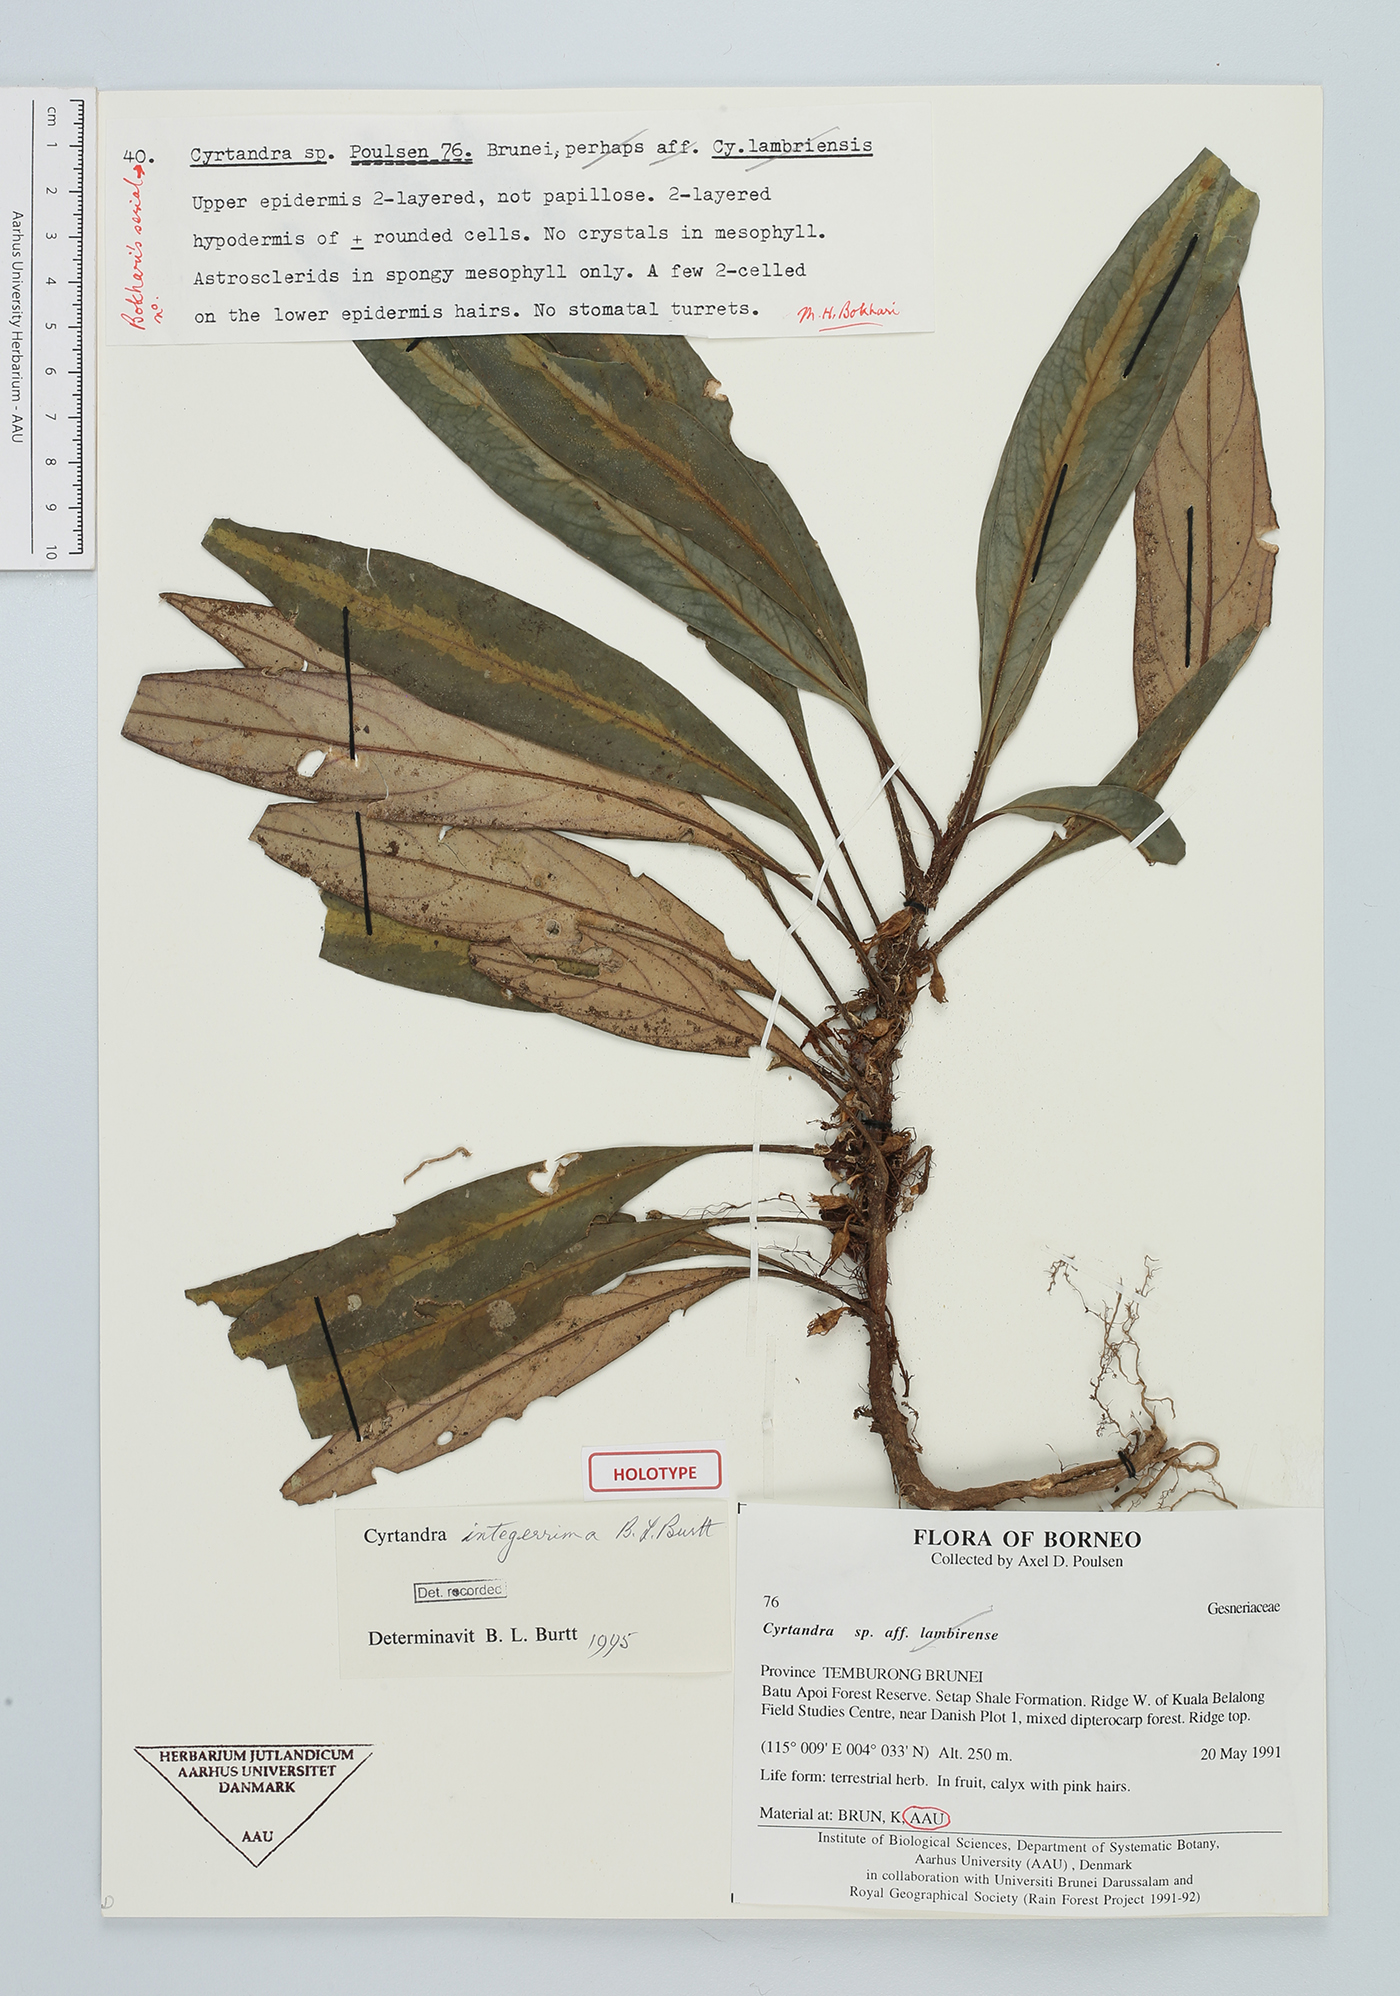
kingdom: Plantae
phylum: Tracheophyta
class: Magnoliopsida
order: Lamiales
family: Gesneriaceae
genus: Cyrtandra
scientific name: Cyrtandra integerrima
